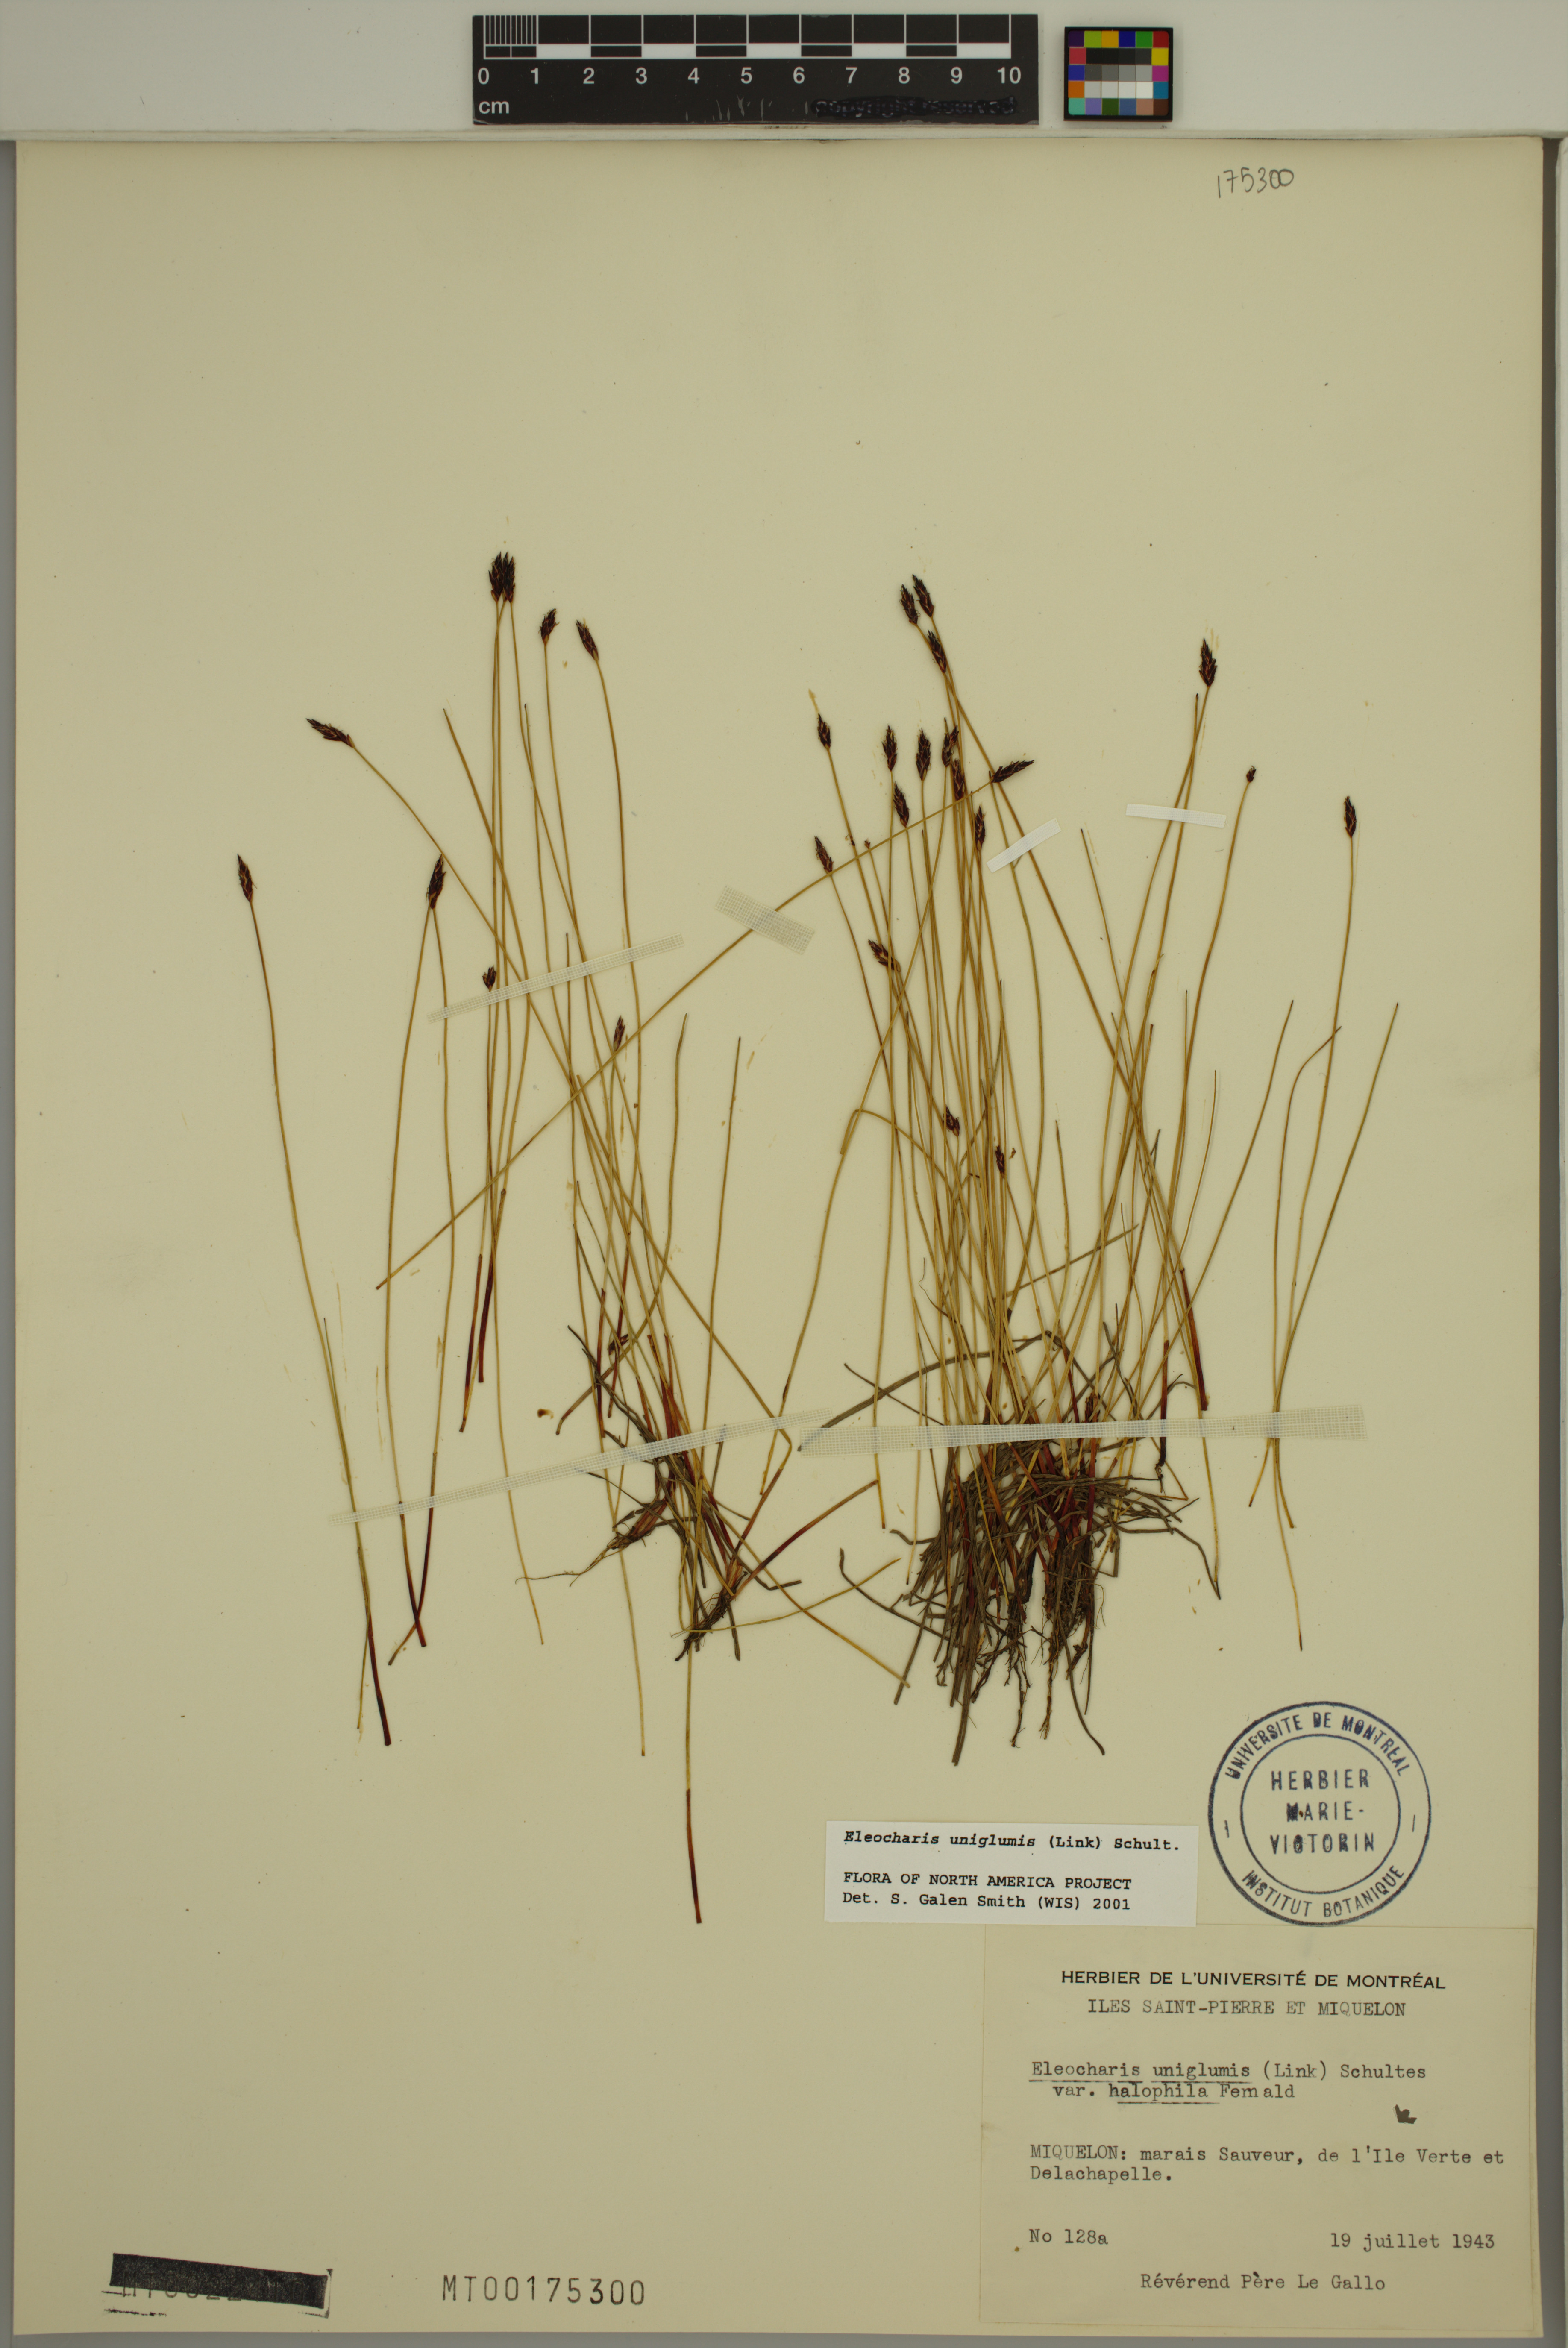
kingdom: Plantae
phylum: Tracheophyta
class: Liliopsida
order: Poales
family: Cyperaceae
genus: Eleocharis
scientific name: Eleocharis uniglumis
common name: Slender spike-rush
